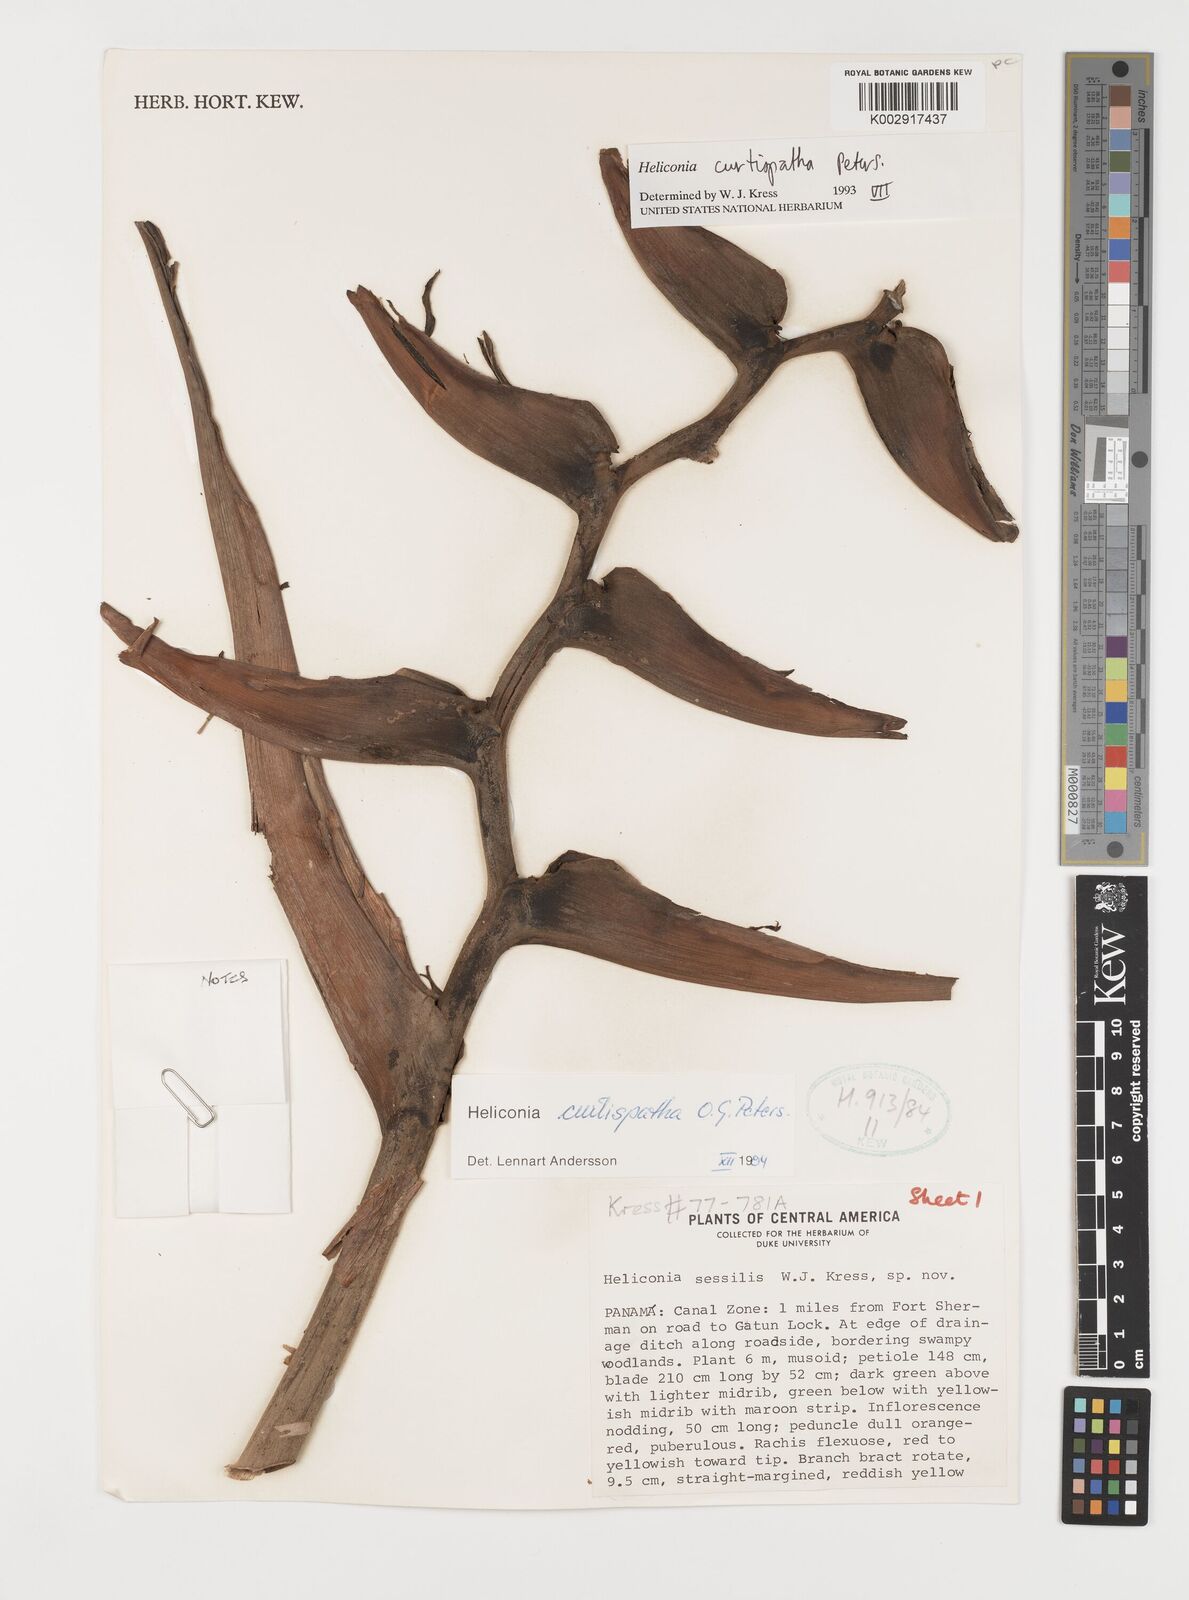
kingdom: Plantae
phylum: Tracheophyta
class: Liliopsida
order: Zingiberales
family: Heliconiaceae
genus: Heliconia
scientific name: Heliconia curtispatha
